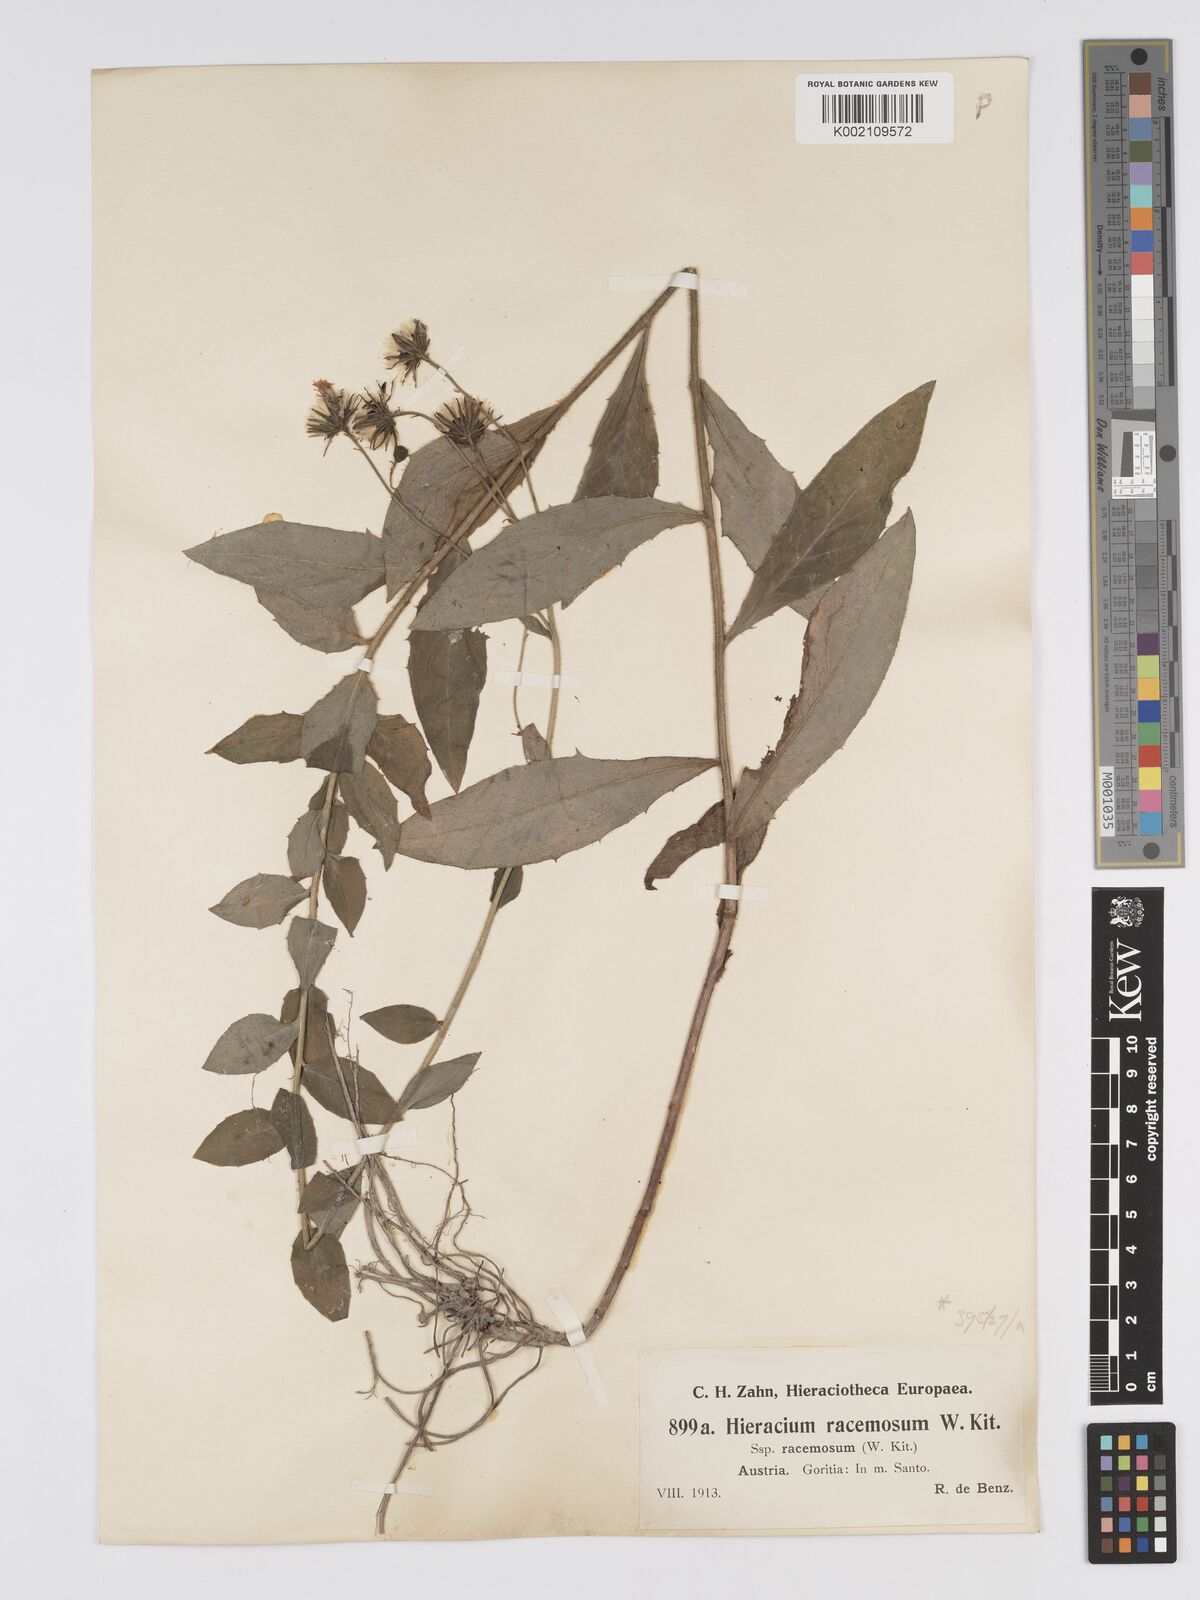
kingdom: Plantae
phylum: Tracheophyta
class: Magnoliopsida
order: Asterales
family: Asteraceae
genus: Hieracium
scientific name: Hieracium racemosum
